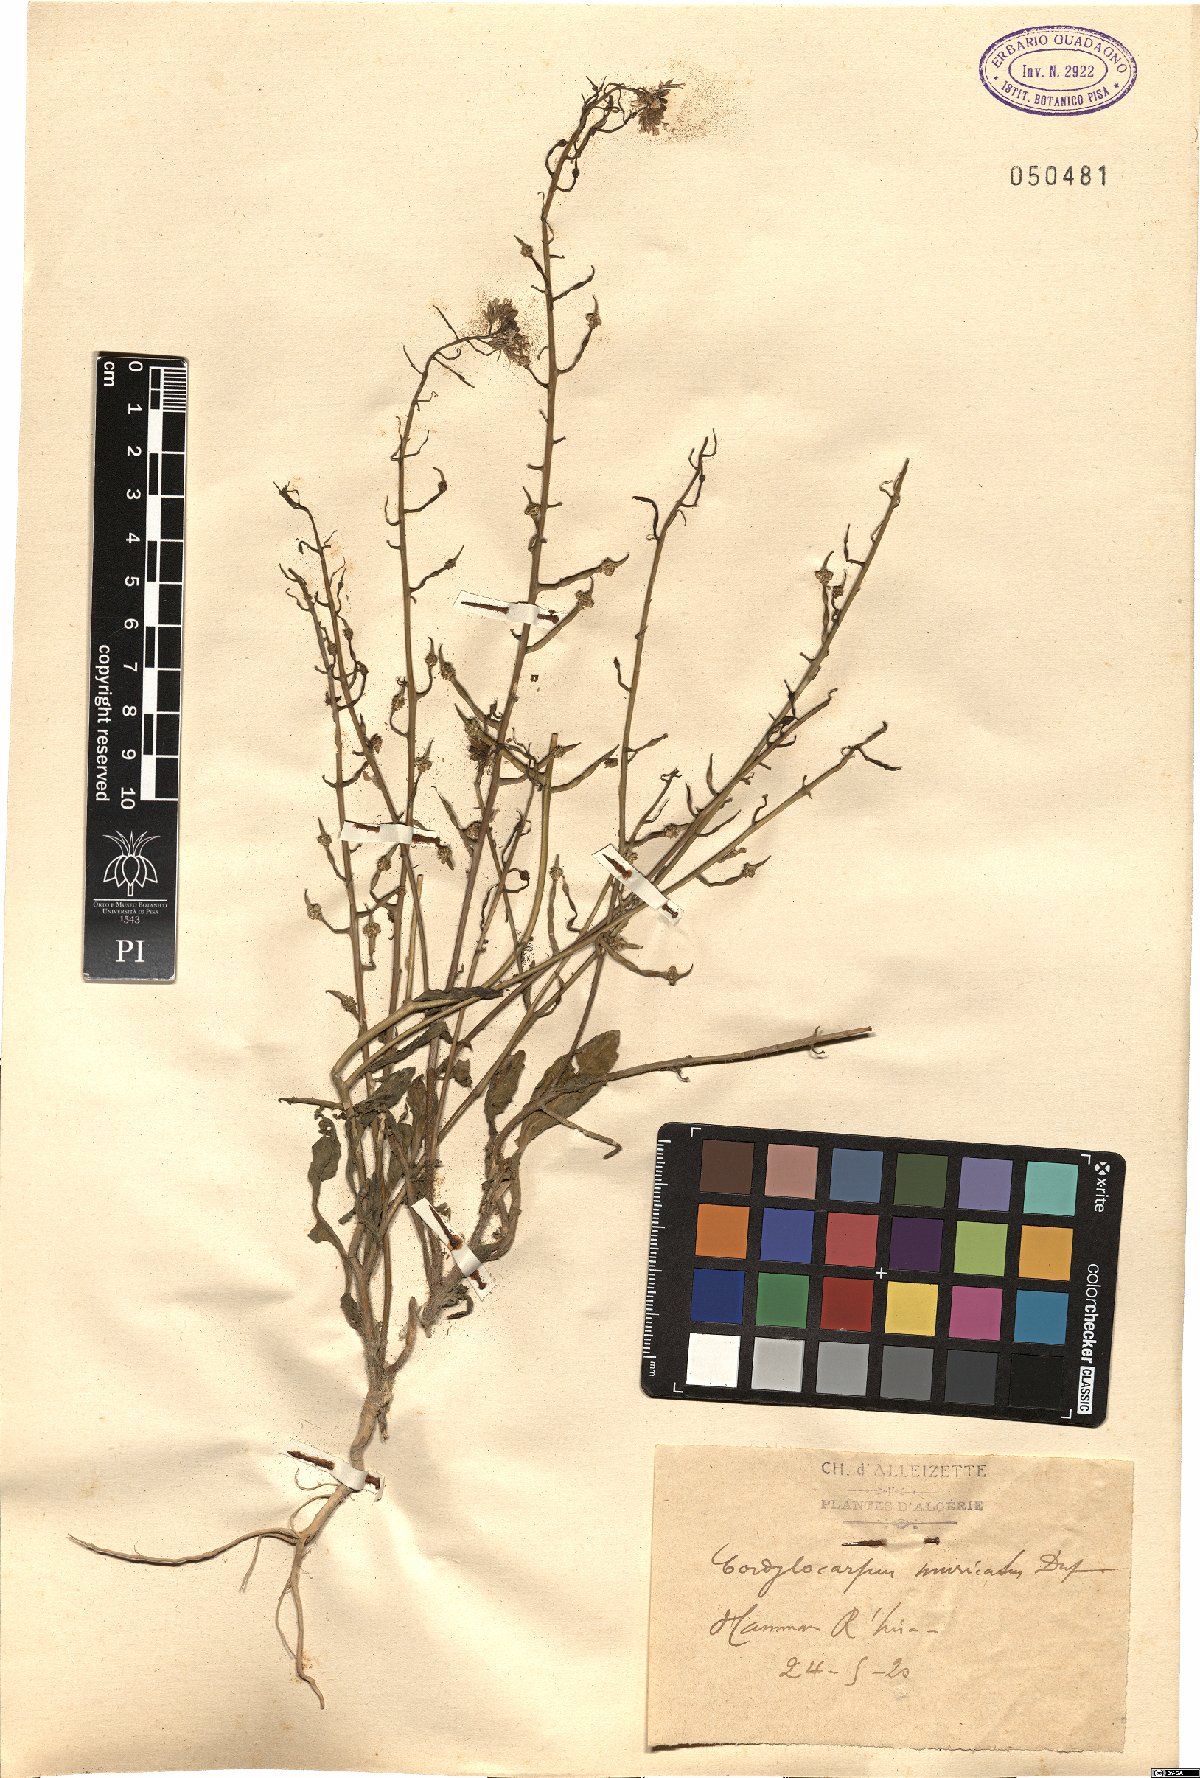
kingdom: Plantae
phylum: Tracheophyta
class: Magnoliopsida
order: Brassicales
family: Brassicaceae
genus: Cordylocarpus
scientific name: Cordylocarpus muricatus
